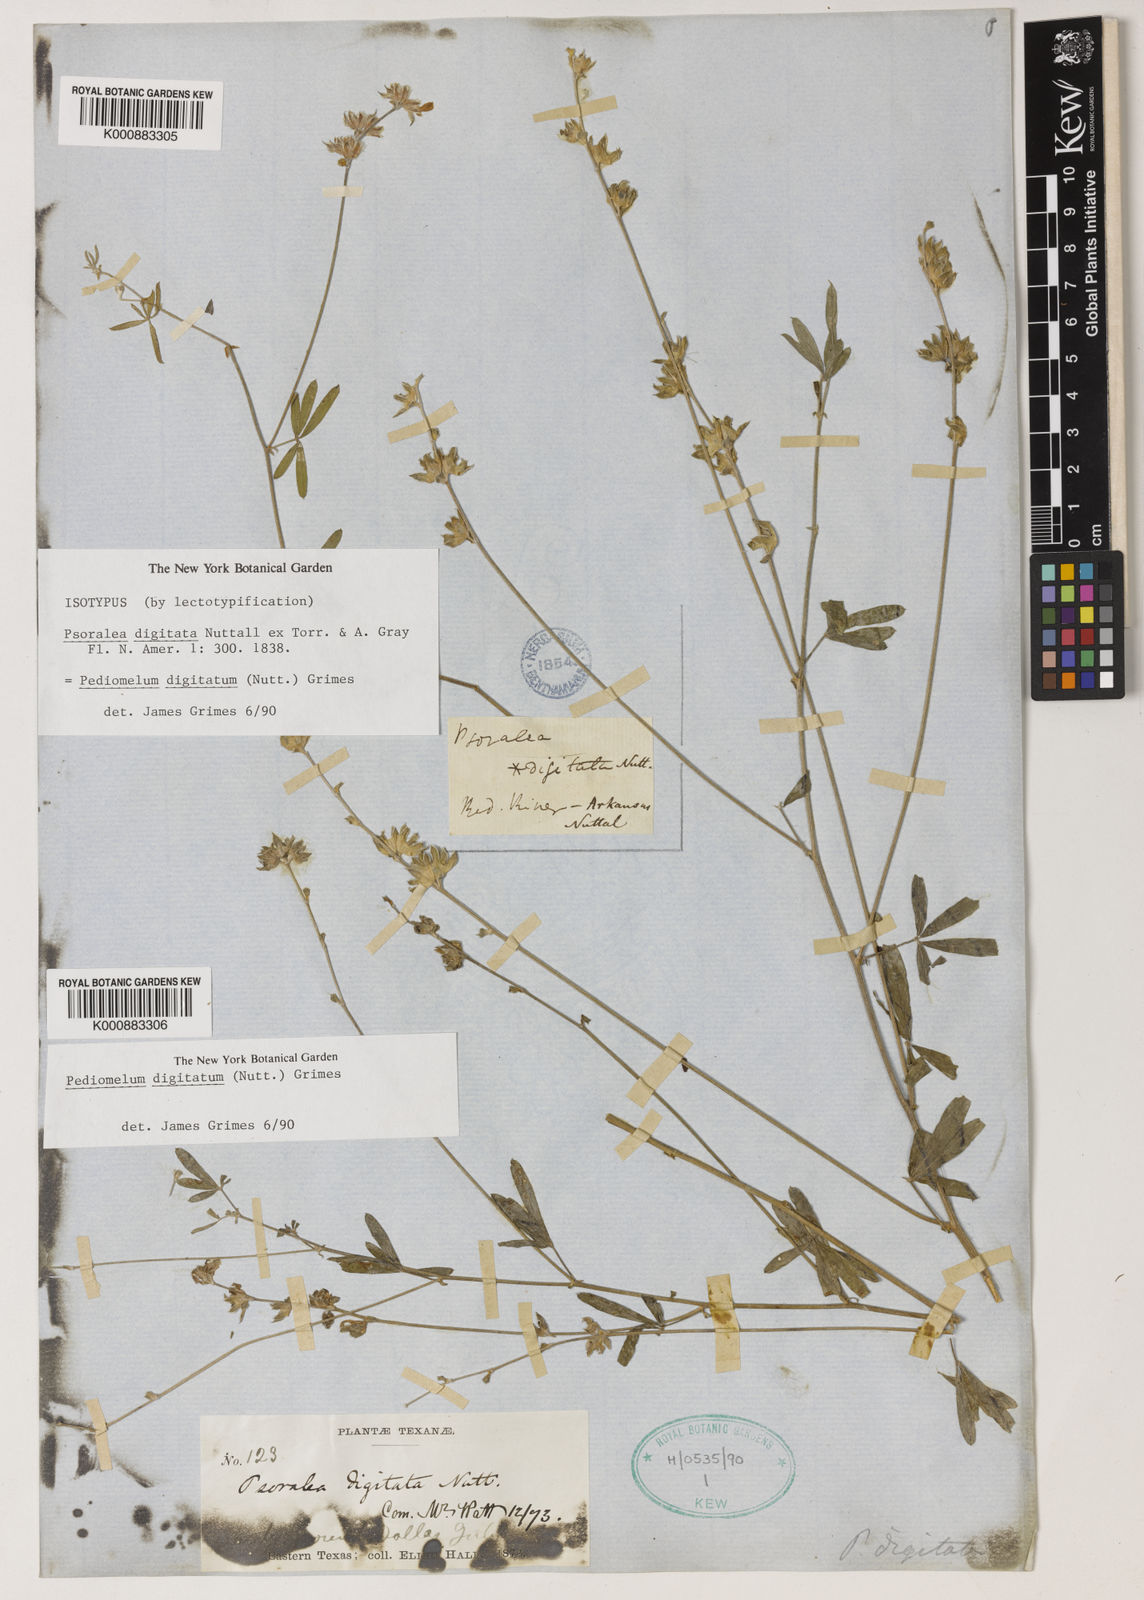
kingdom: Plantae
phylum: Tracheophyta
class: Magnoliopsida
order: Fabales
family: Fabaceae
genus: Pediomelum
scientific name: Pediomelum
